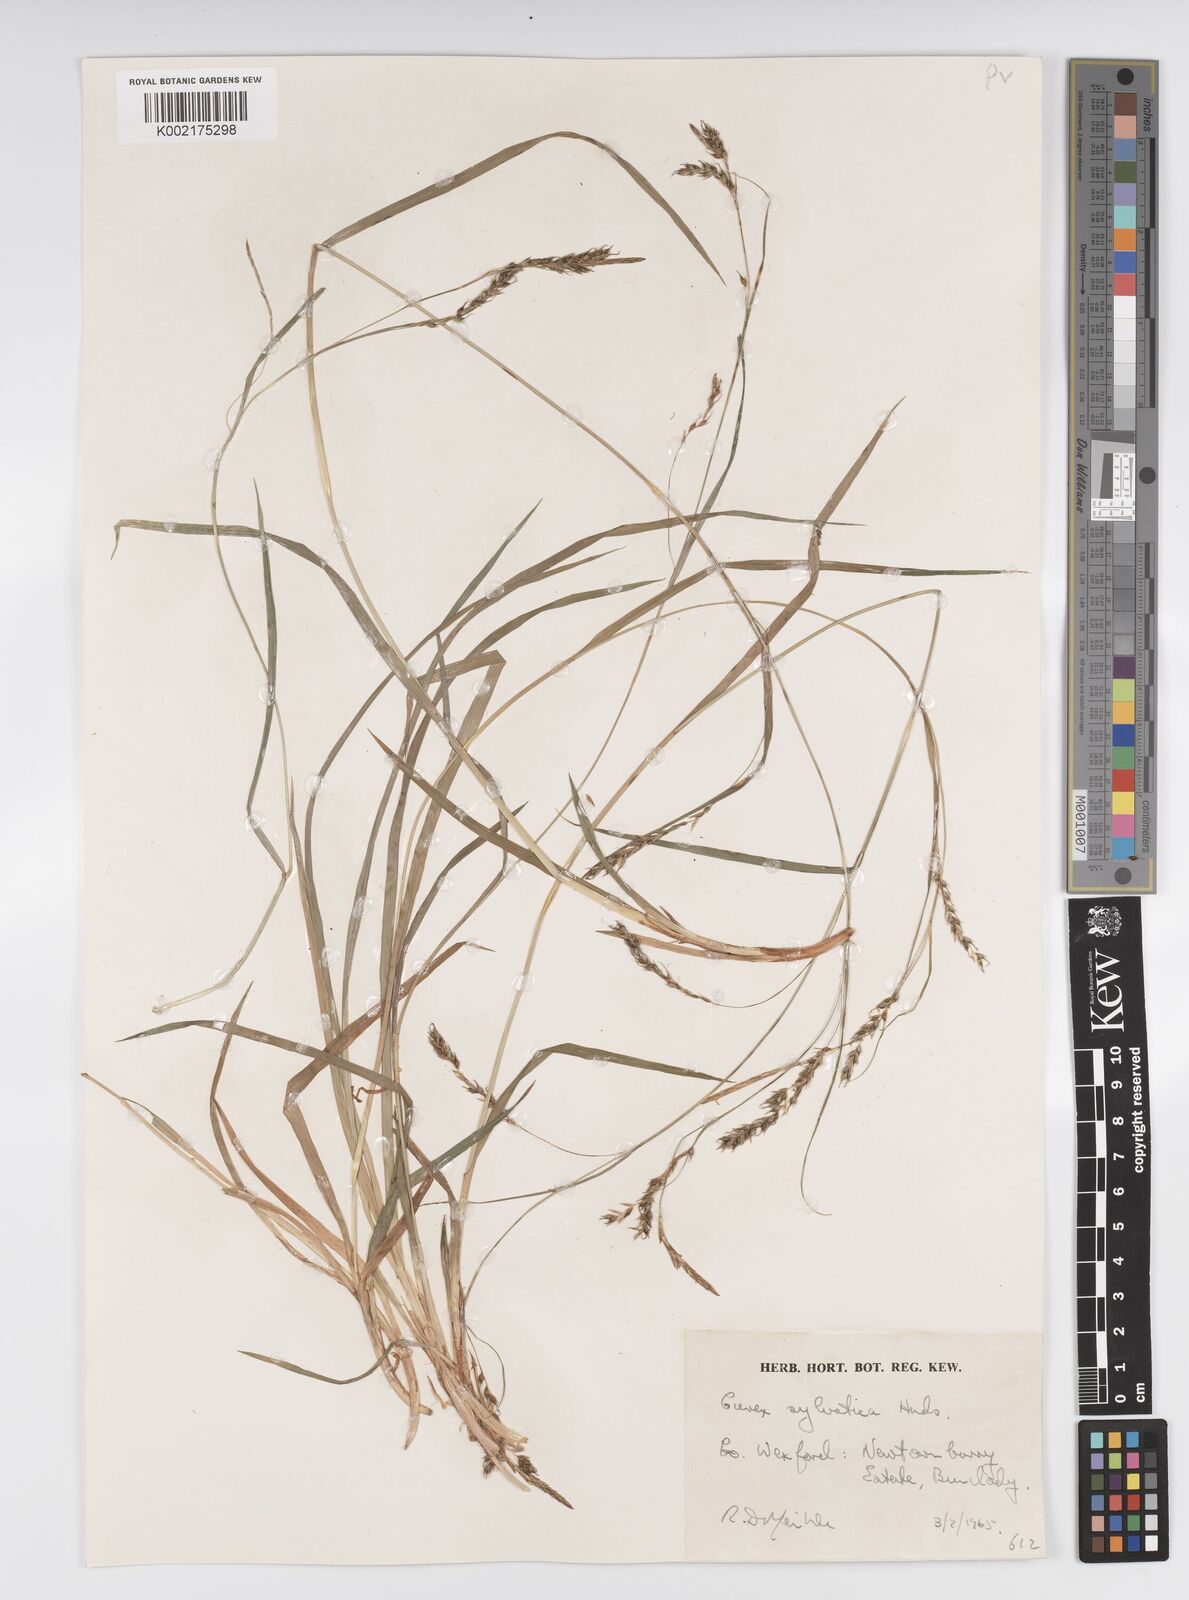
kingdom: Plantae
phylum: Tracheophyta
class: Liliopsida
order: Poales
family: Cyperaceae
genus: Carex
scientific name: Carex sylvatica
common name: Wood-sedge
